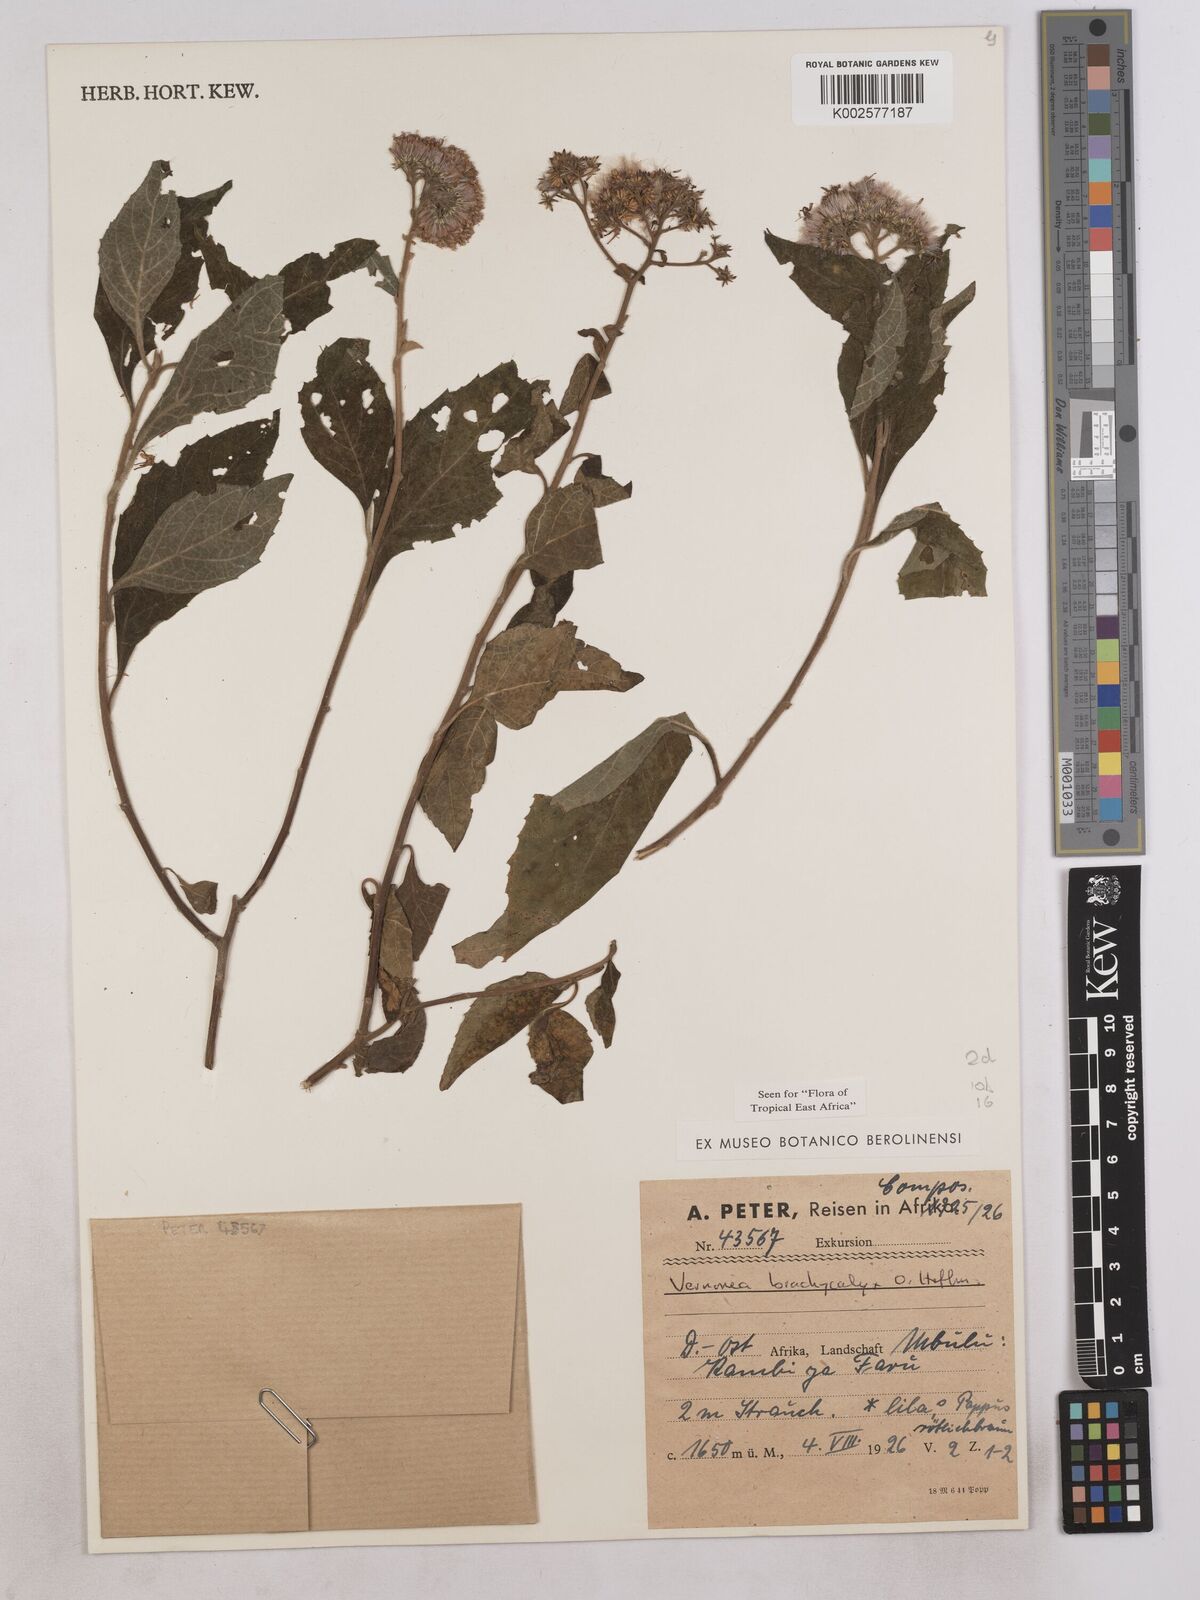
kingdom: Plantae
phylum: Tracheophyta
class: Magnoliopsida
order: Asterales
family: Asteraceae
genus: Hoffmannanthus
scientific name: Hoffmannanthus abbotianus
